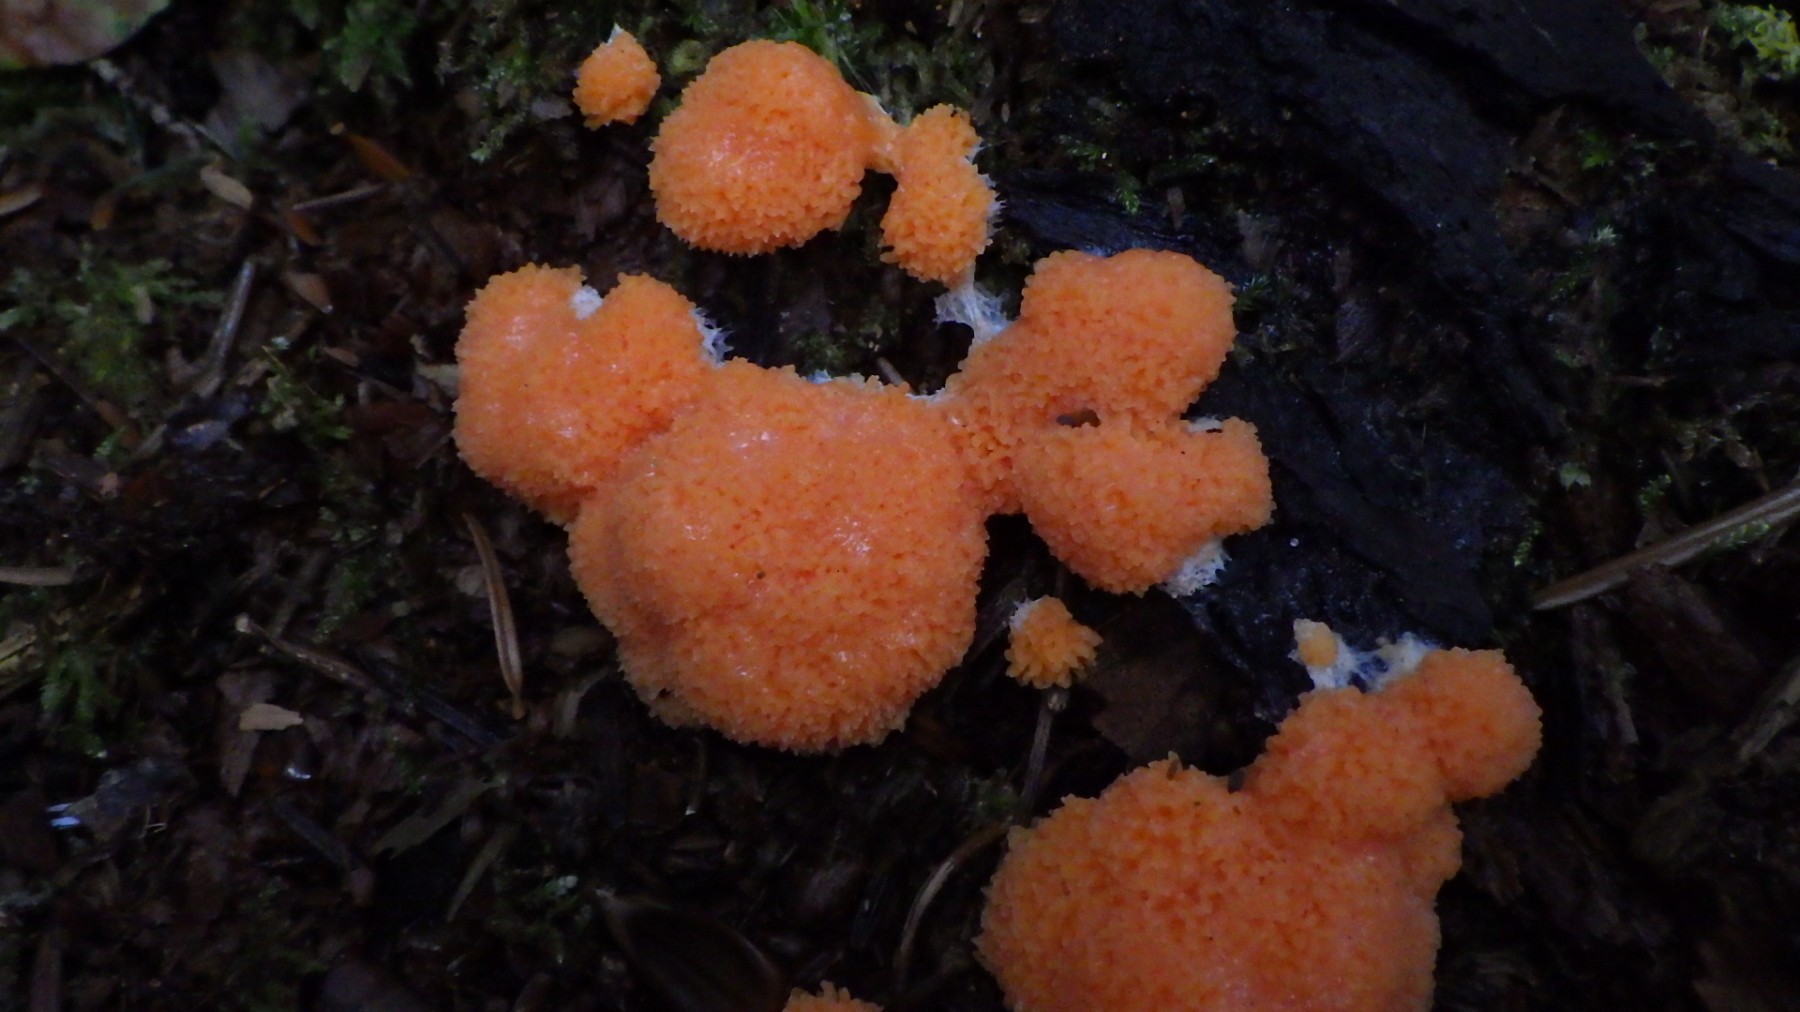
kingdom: Protozoa
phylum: Mycetozoa
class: Myxomycetes
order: Cribrariales
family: Tubiferaceae
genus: Tubifera
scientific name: Tubifera ferruginosa
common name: kanel-støvrør
